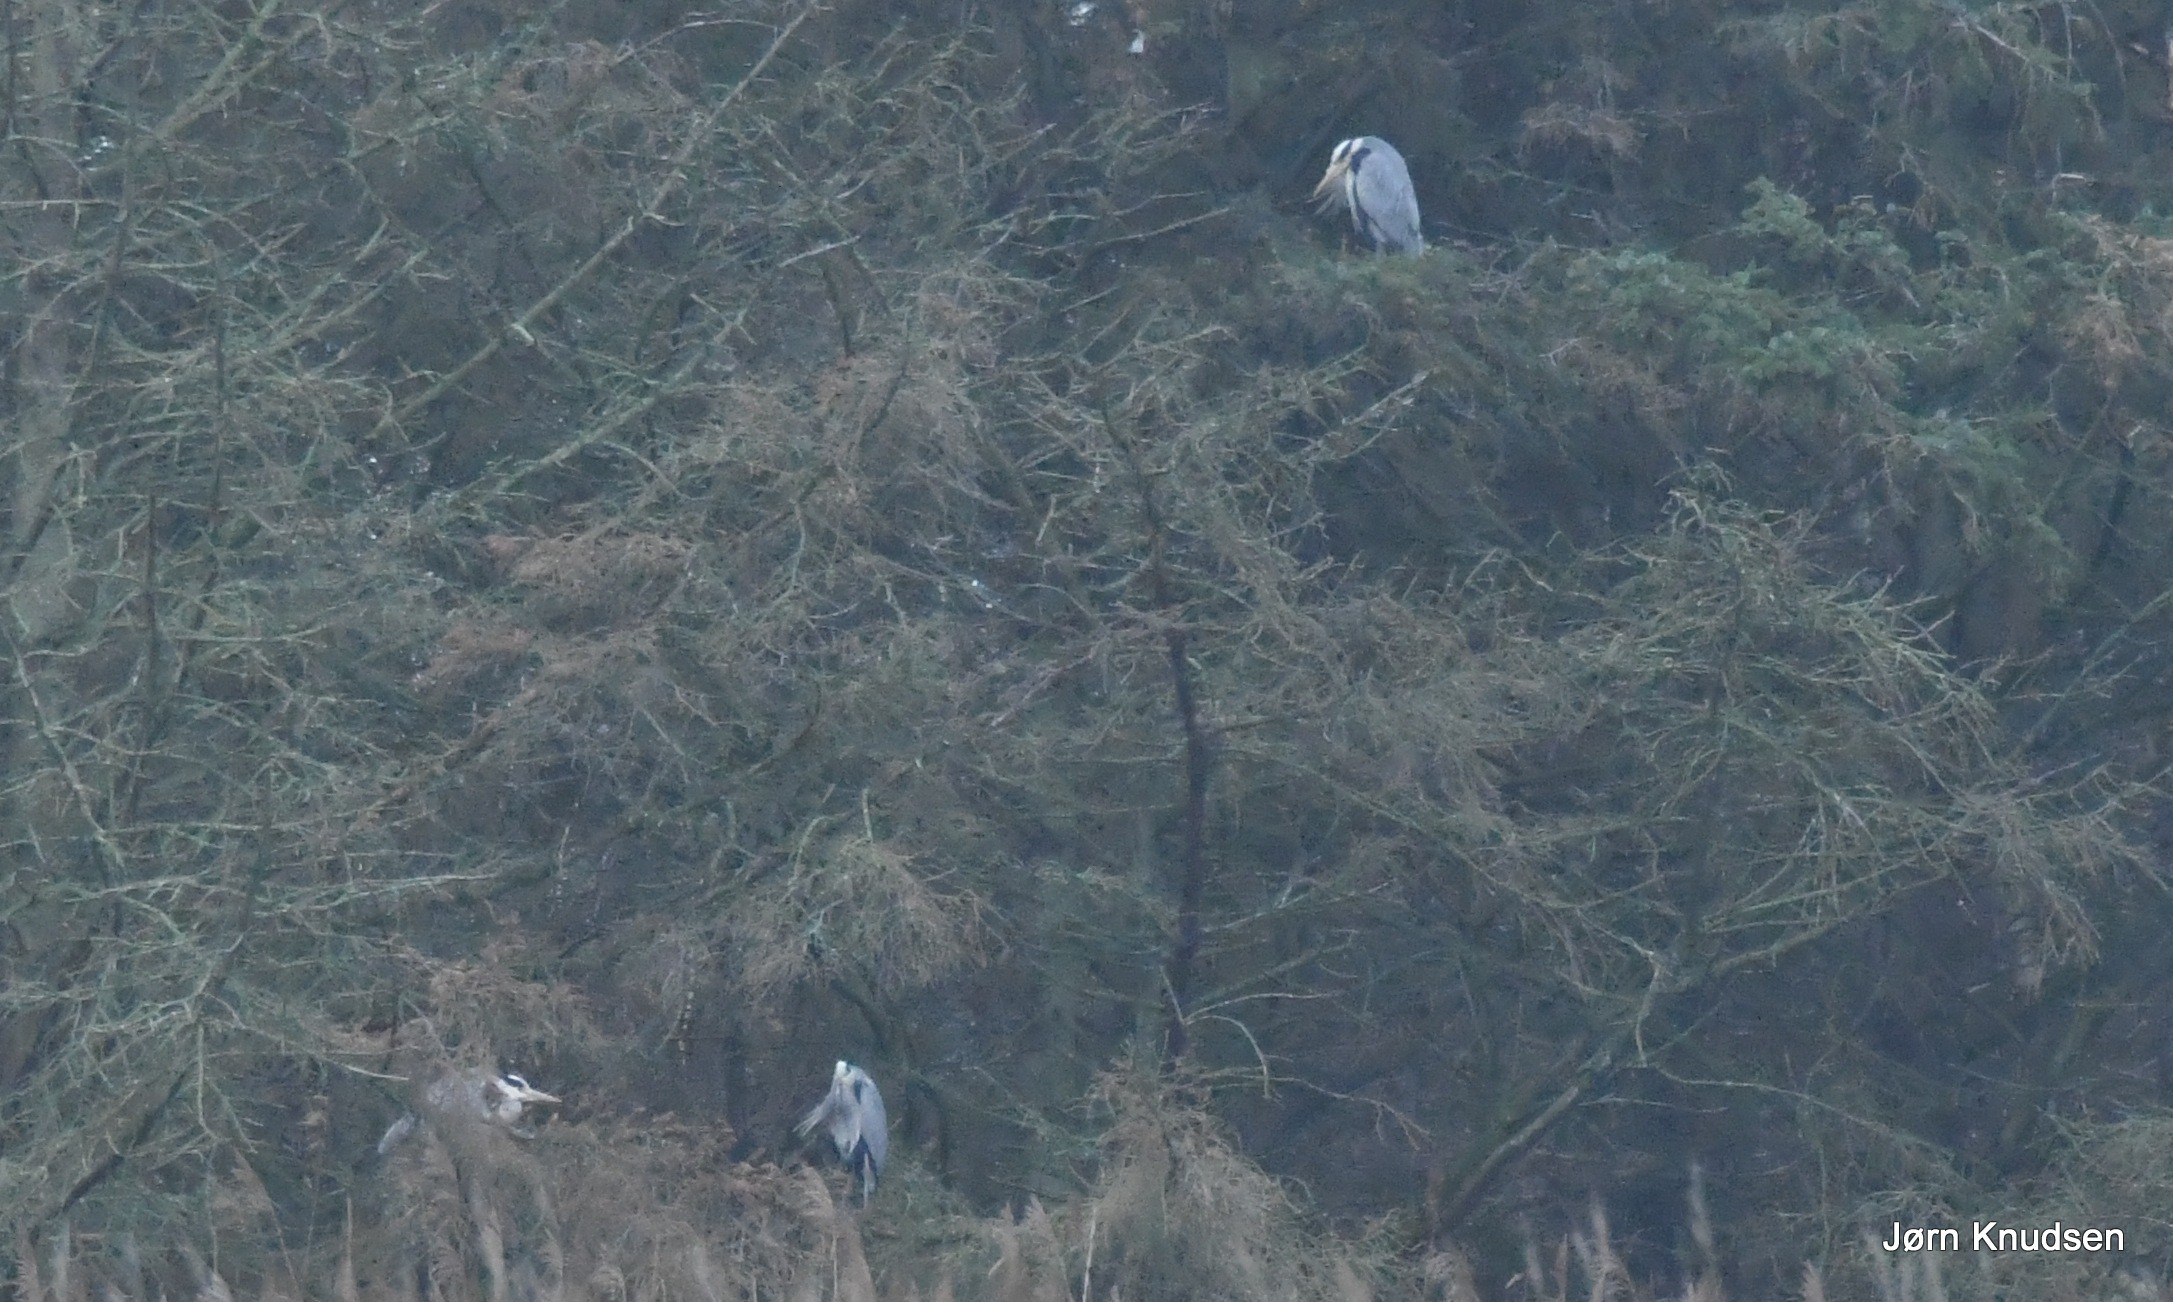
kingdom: Animalia
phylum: Chordata
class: Aves
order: Pelecaniformes
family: Ardeidae
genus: Ardea
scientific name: Ardea cinerea
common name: Fiskehejre
